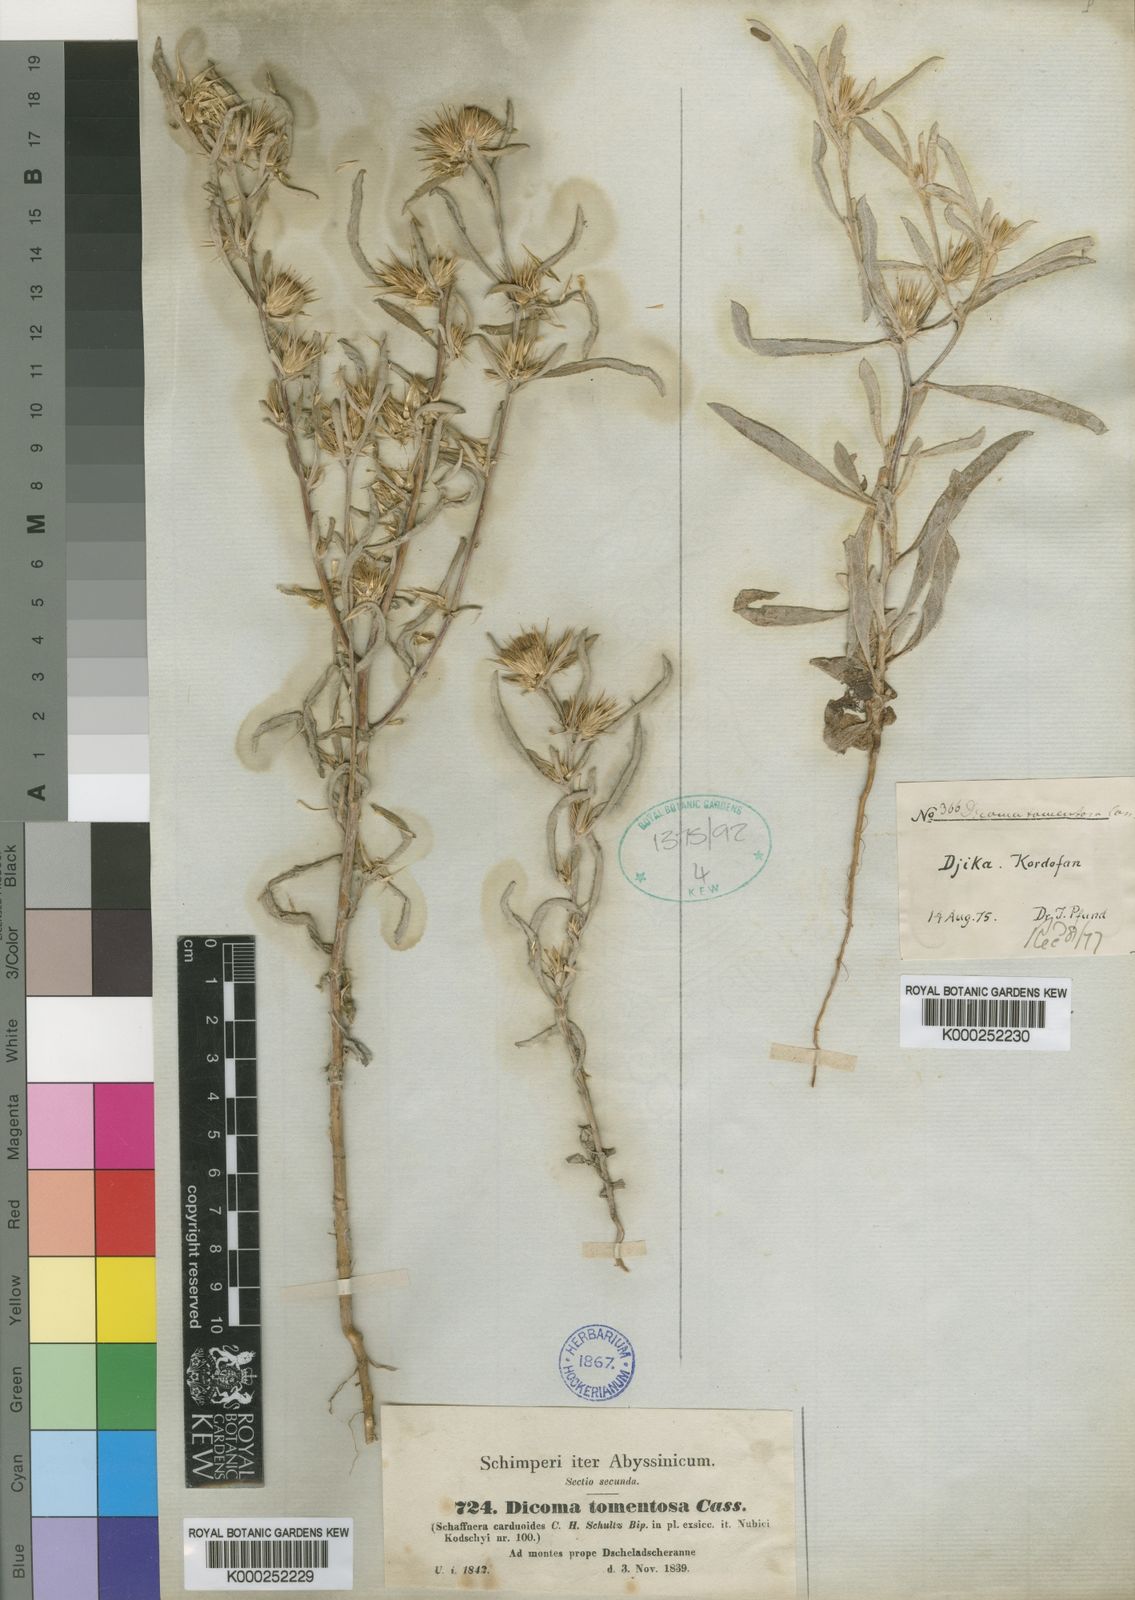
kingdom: Plantae
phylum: Tracheophyta
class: Magnoliopsida
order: Asterales
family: Asteraceae
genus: Dicoma
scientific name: Dicoma tomentosa
